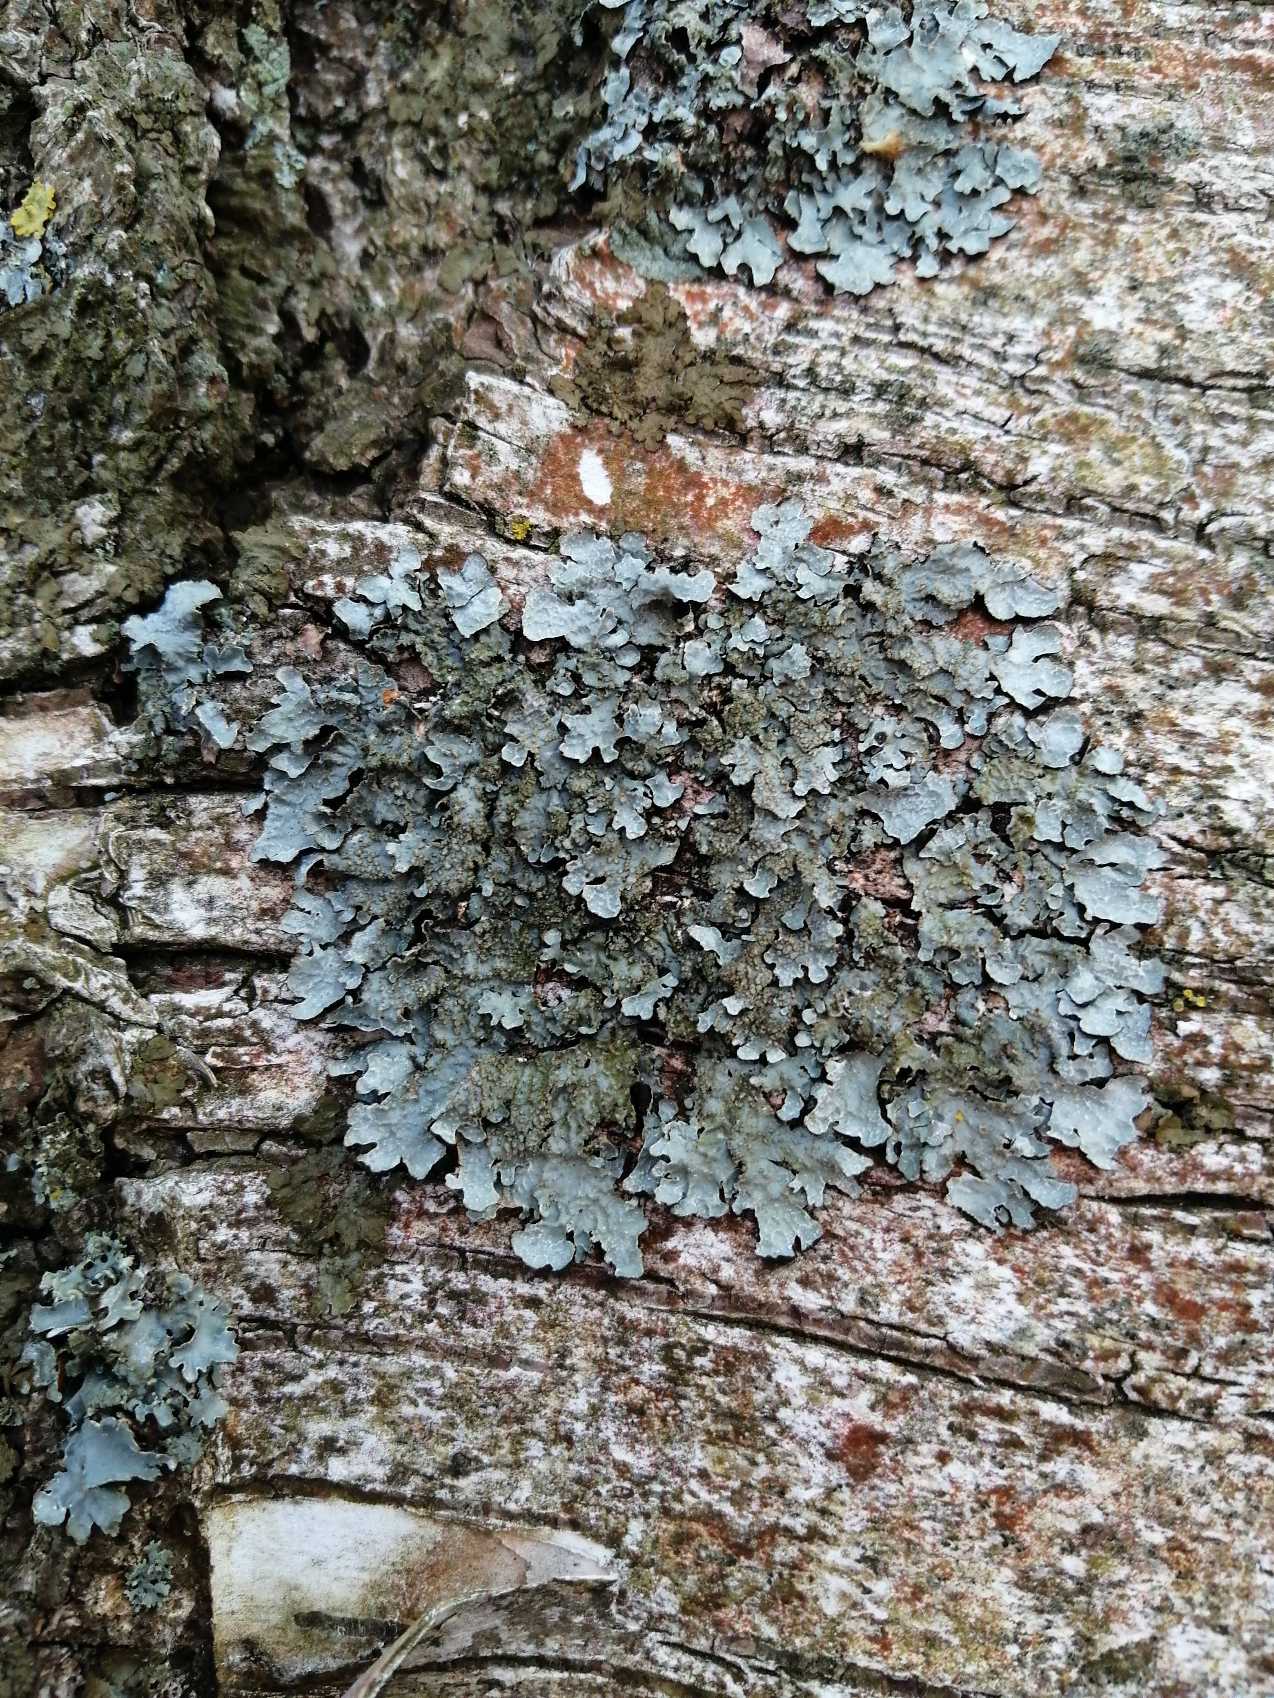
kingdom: Fungi
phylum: Ascomycota
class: Lecanoromycetes
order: Lecanorales
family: Parmeliaceae
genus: Parmelia
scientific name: Parmelia sulcata
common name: Rynket skållav
